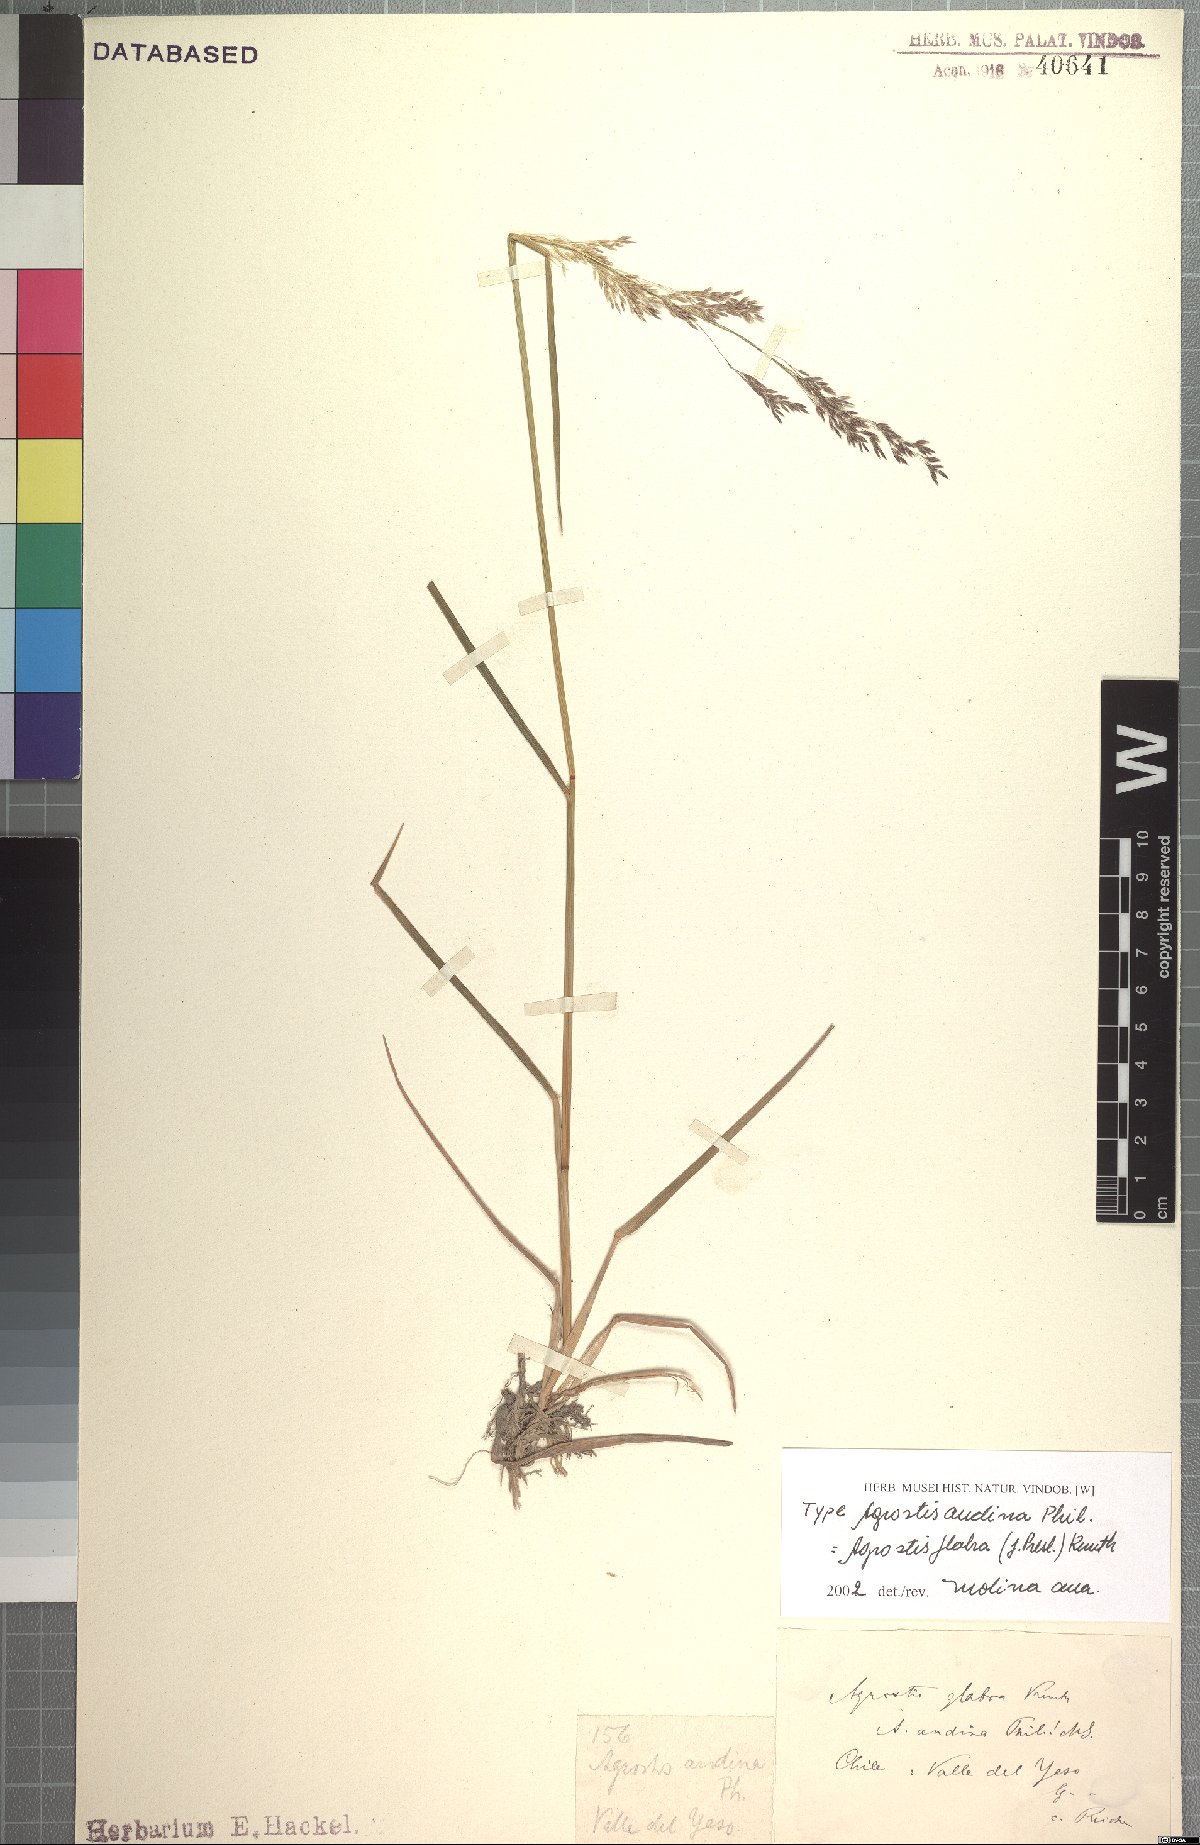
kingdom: Plantae
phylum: Tracheophyta
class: Liliopsida
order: Poales
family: Poaceae
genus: Agrostis
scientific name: Agrostis glabra
